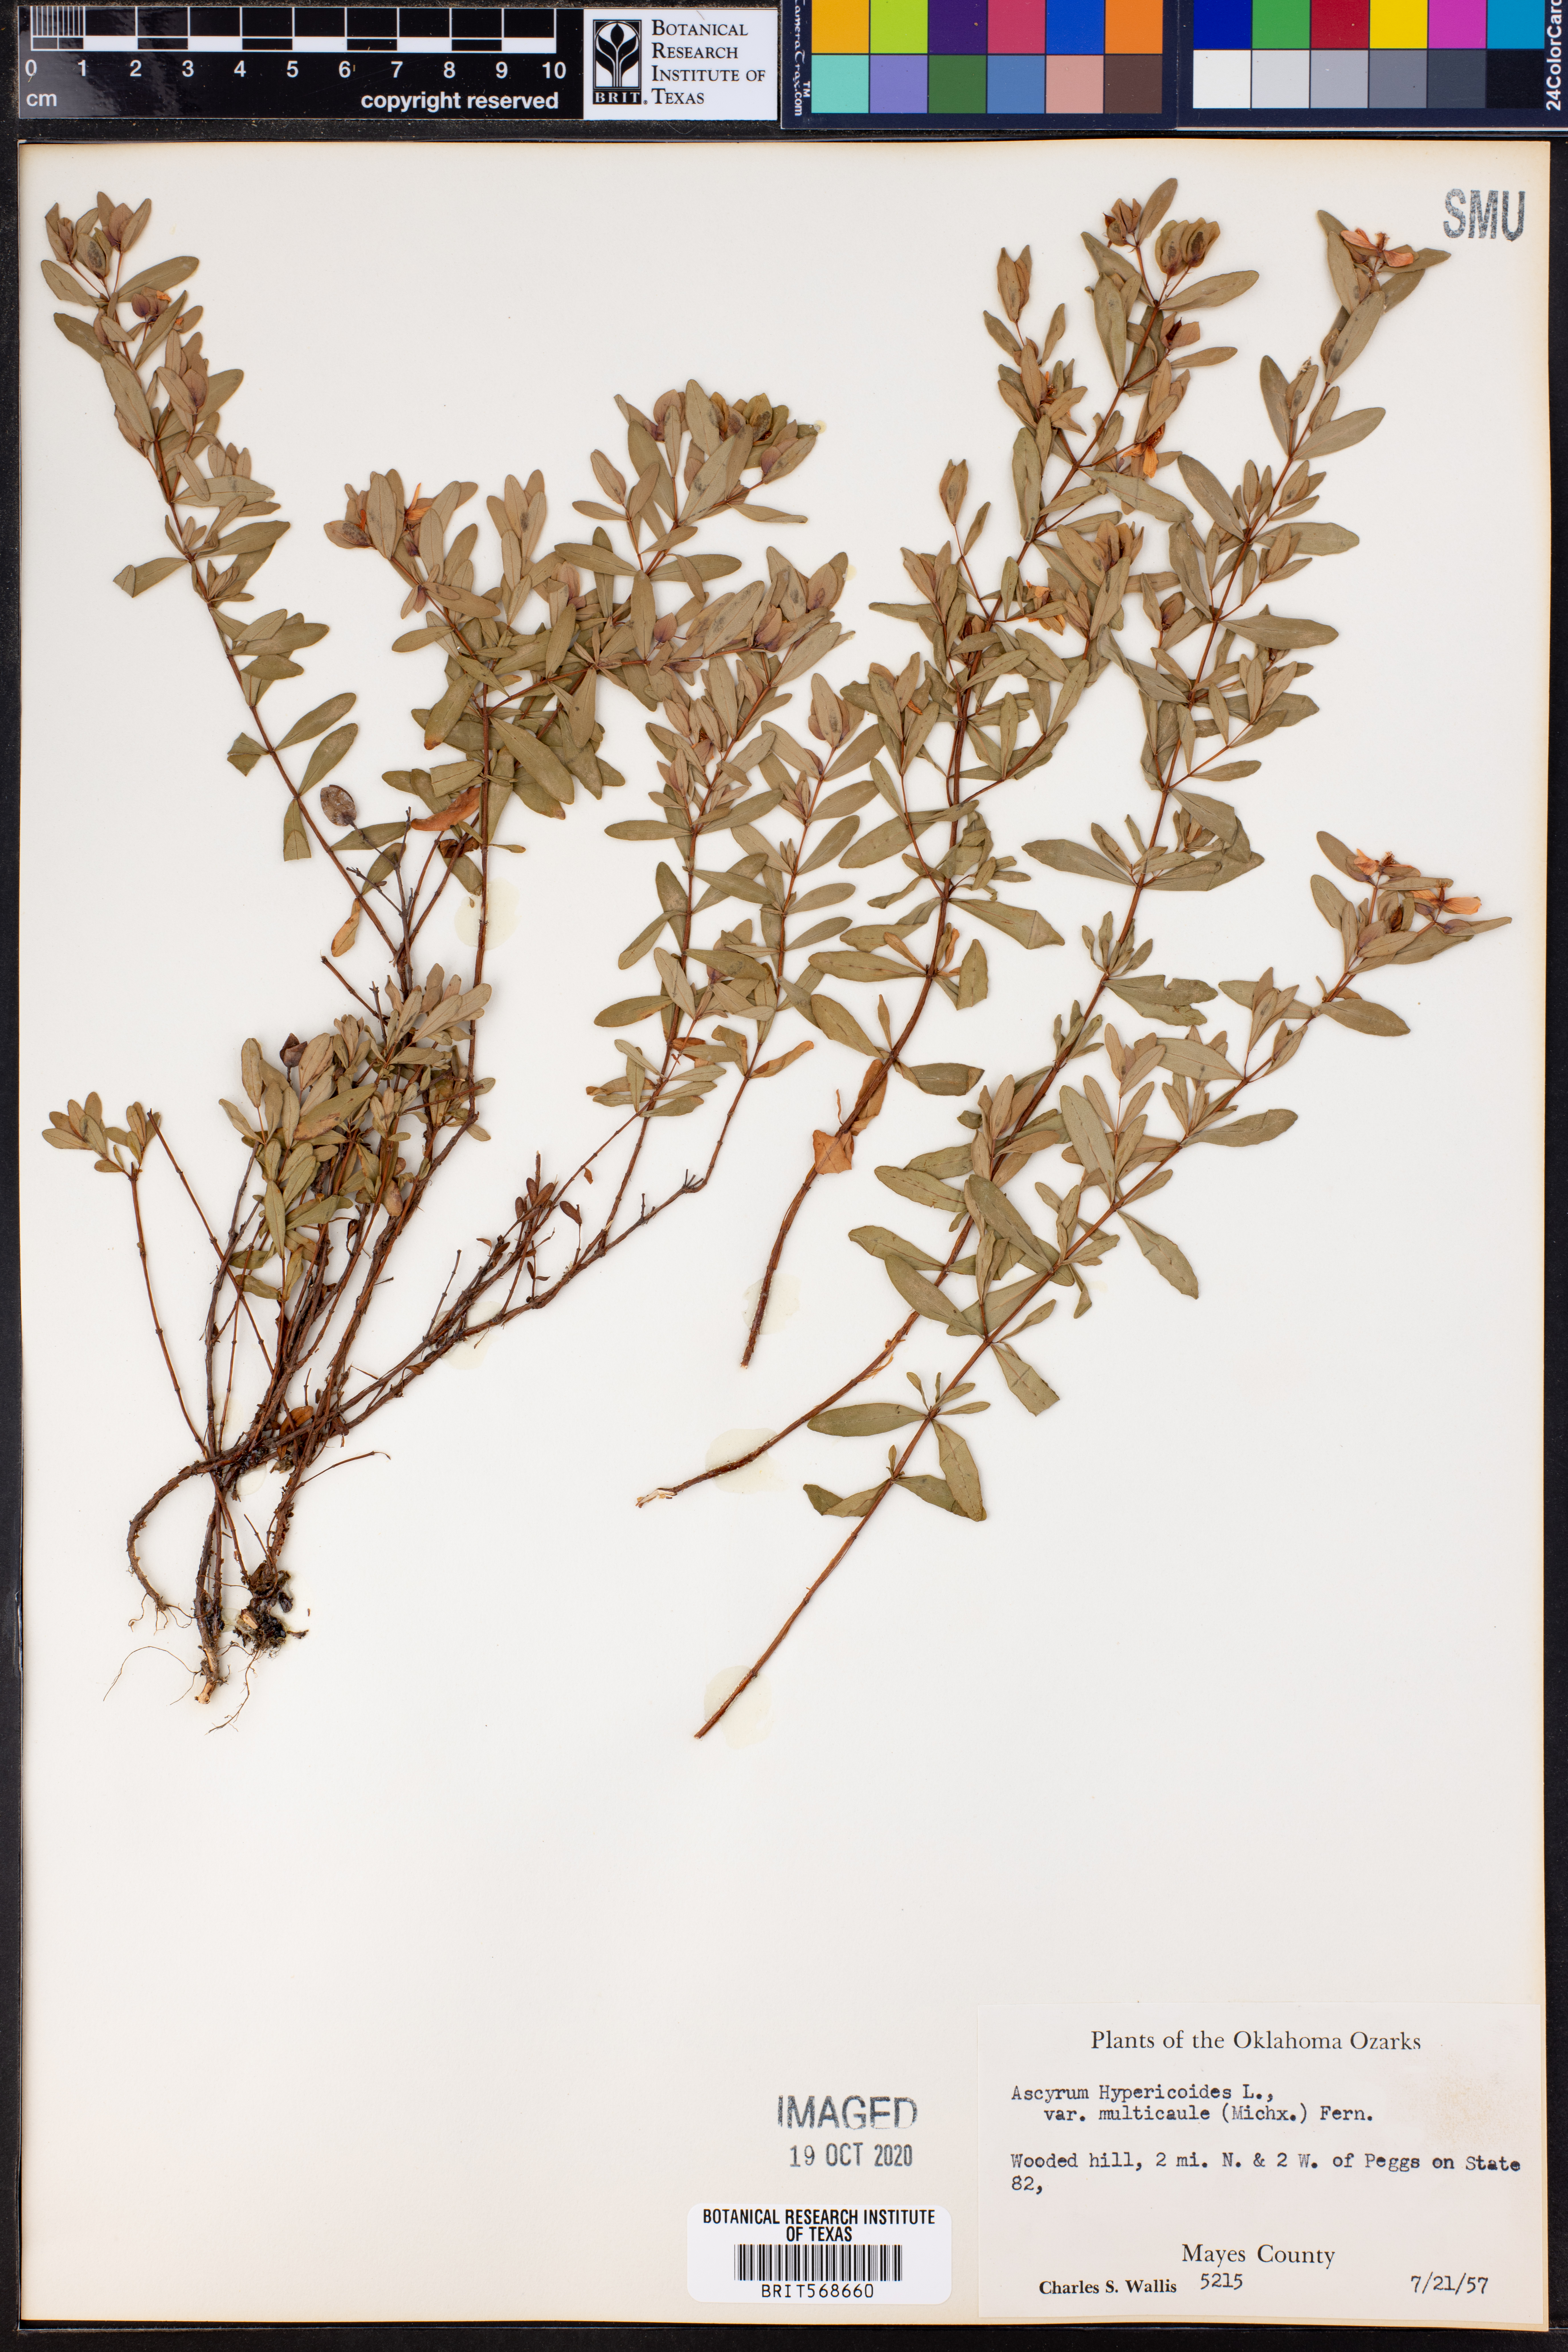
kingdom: Plantae
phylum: Tracheophyta
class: Magnoliopsida
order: Malpighiales
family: Hypericaceae
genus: Hypericum
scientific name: Hypericum hypericoides
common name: St. andrew's cross
